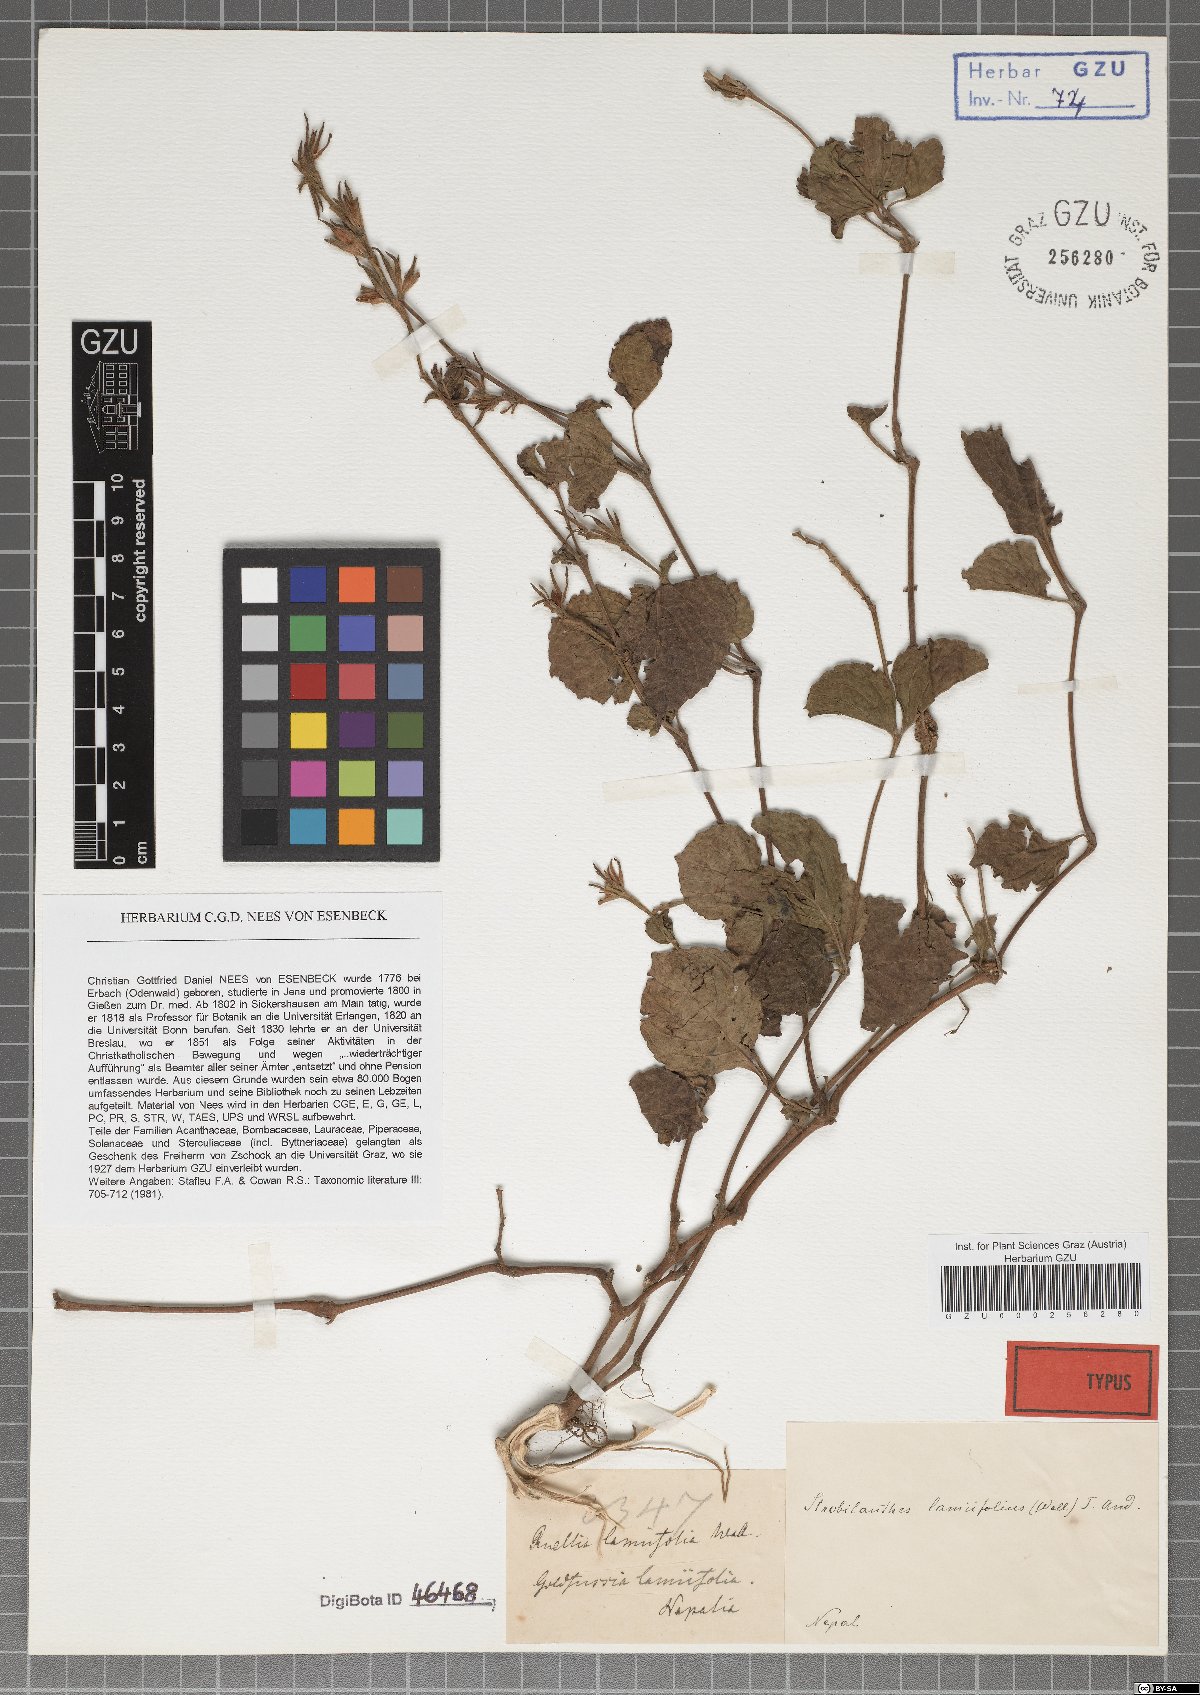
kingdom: Plantae
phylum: Tracheophyta
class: Magnoliopsida
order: Lamiales
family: Acanthaceae
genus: Strobilanthes
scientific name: Strobilanthes lamiifolia
